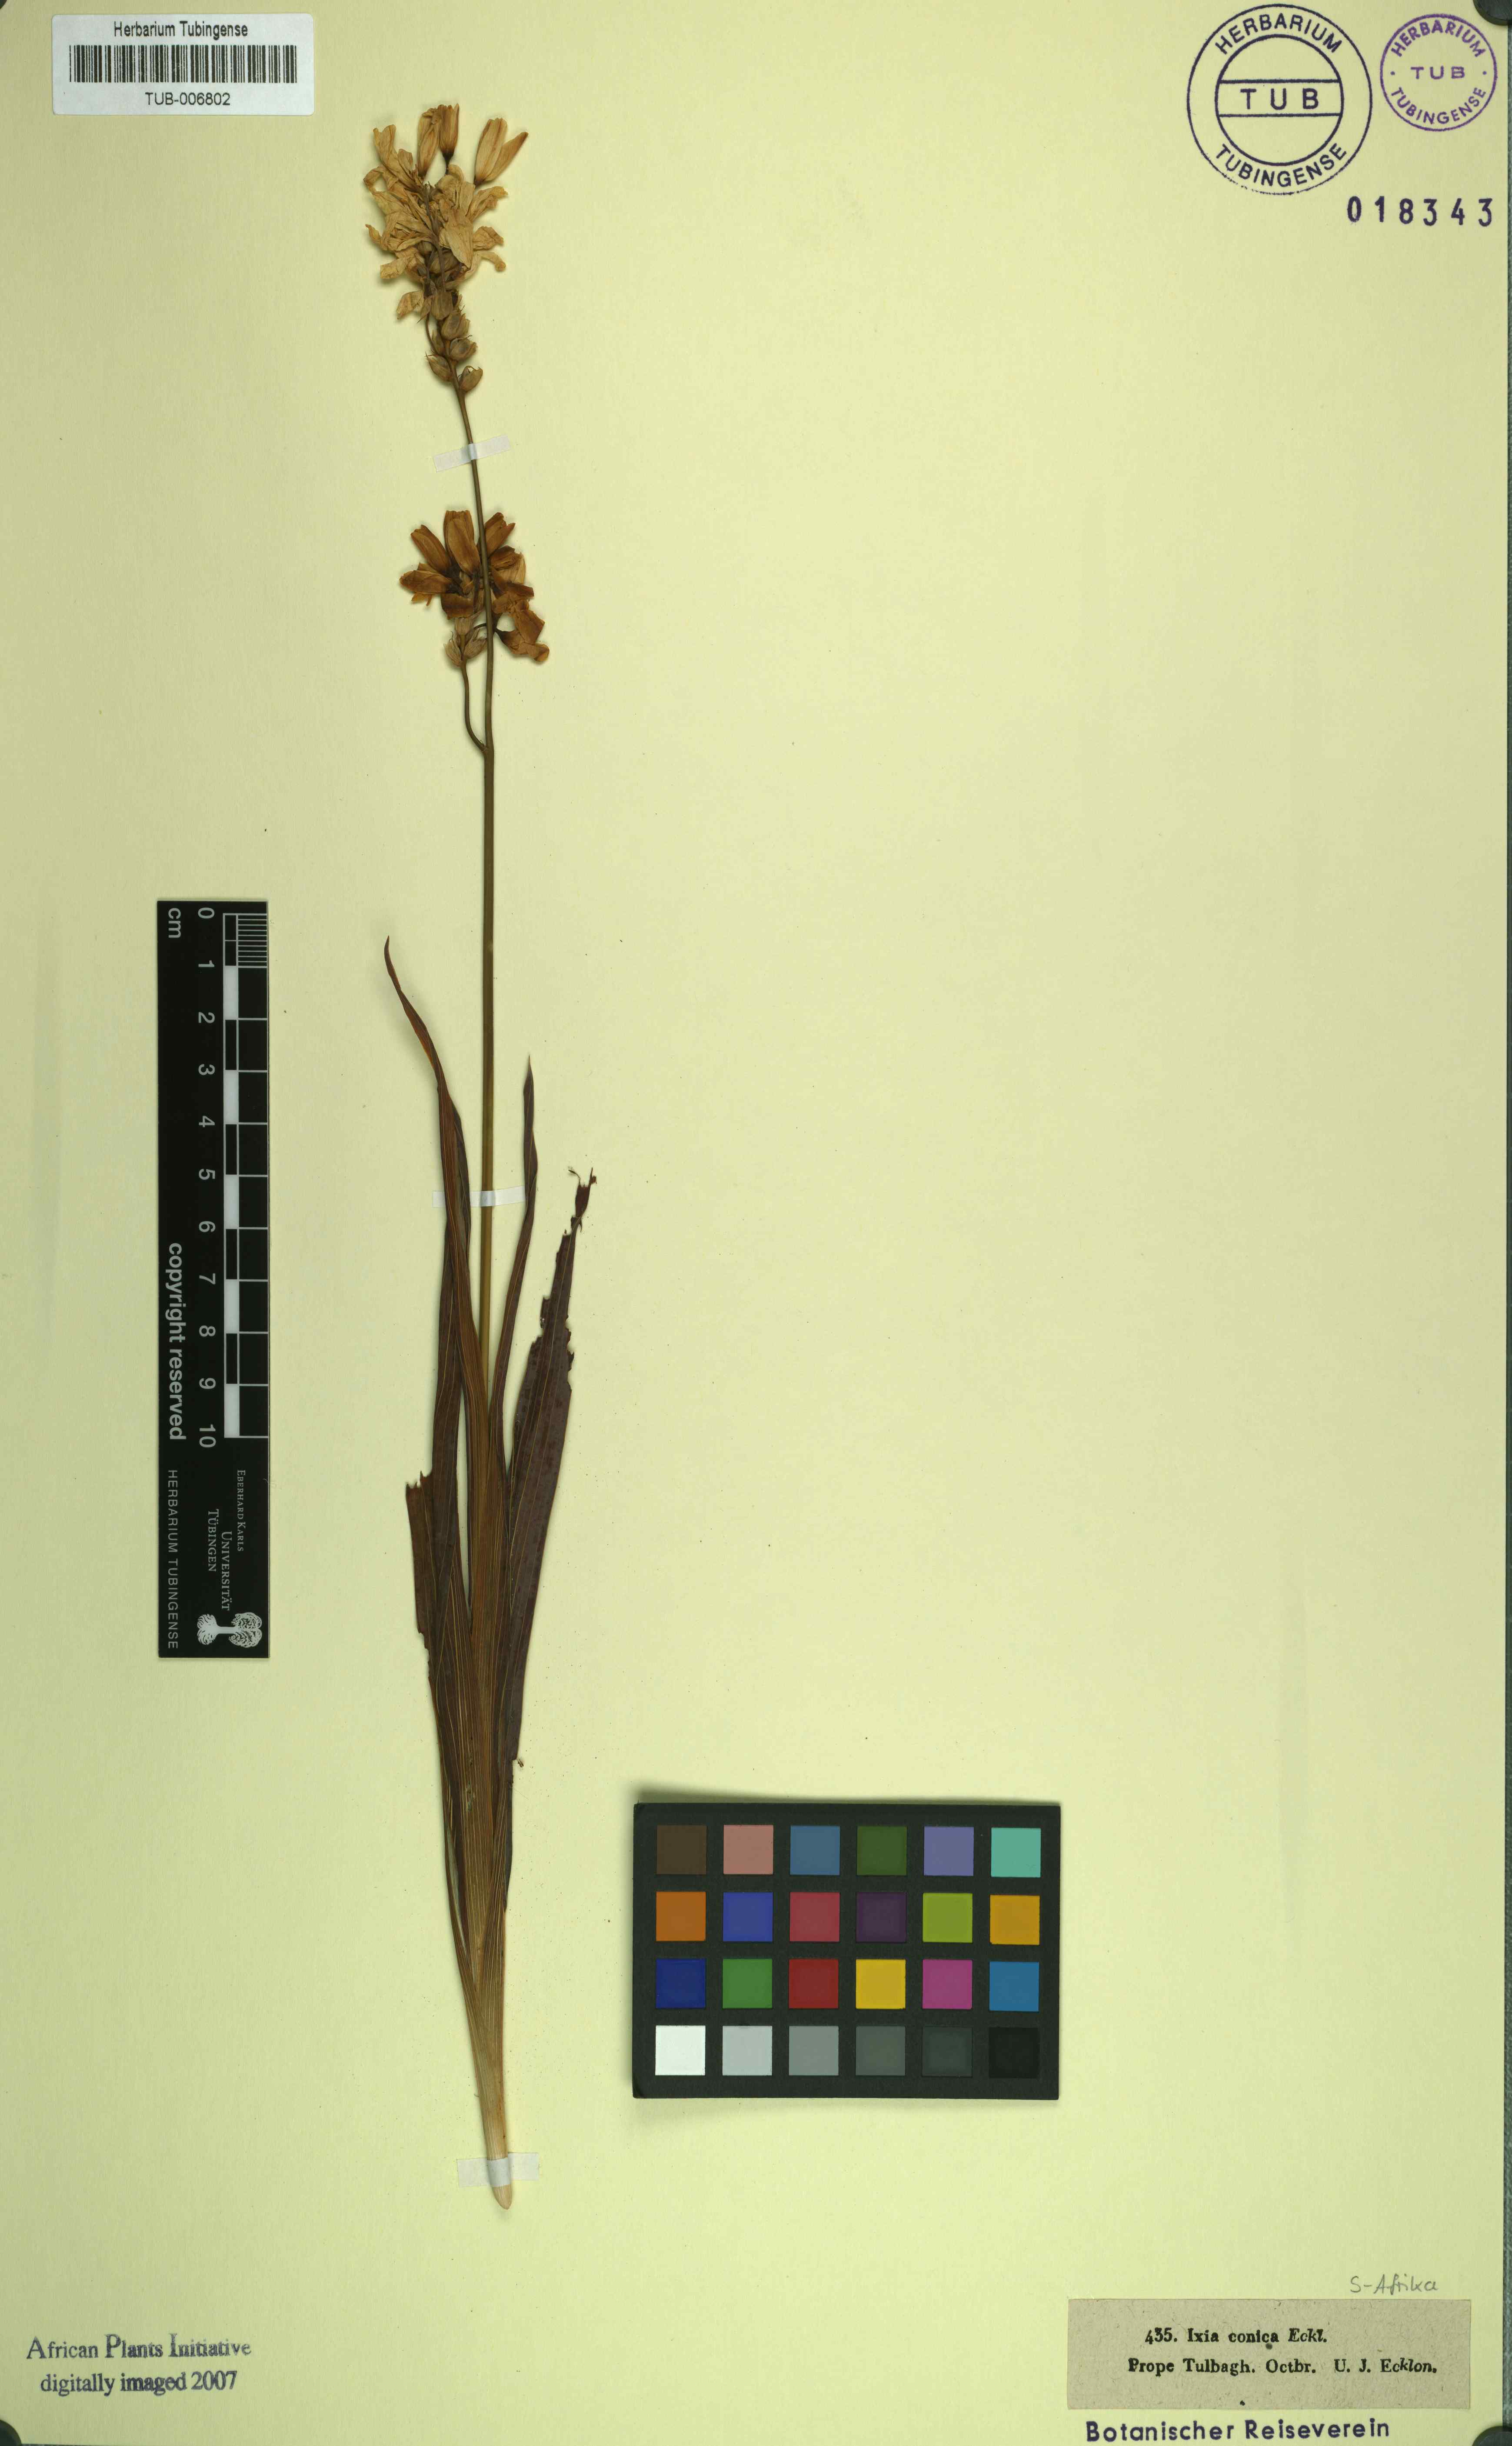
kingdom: Plantae
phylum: Tracheophyta
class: Liliopsida
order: Asparagales
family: Iridaceae
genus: Ixia
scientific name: Ixia maculata
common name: Spotted african cornlily
